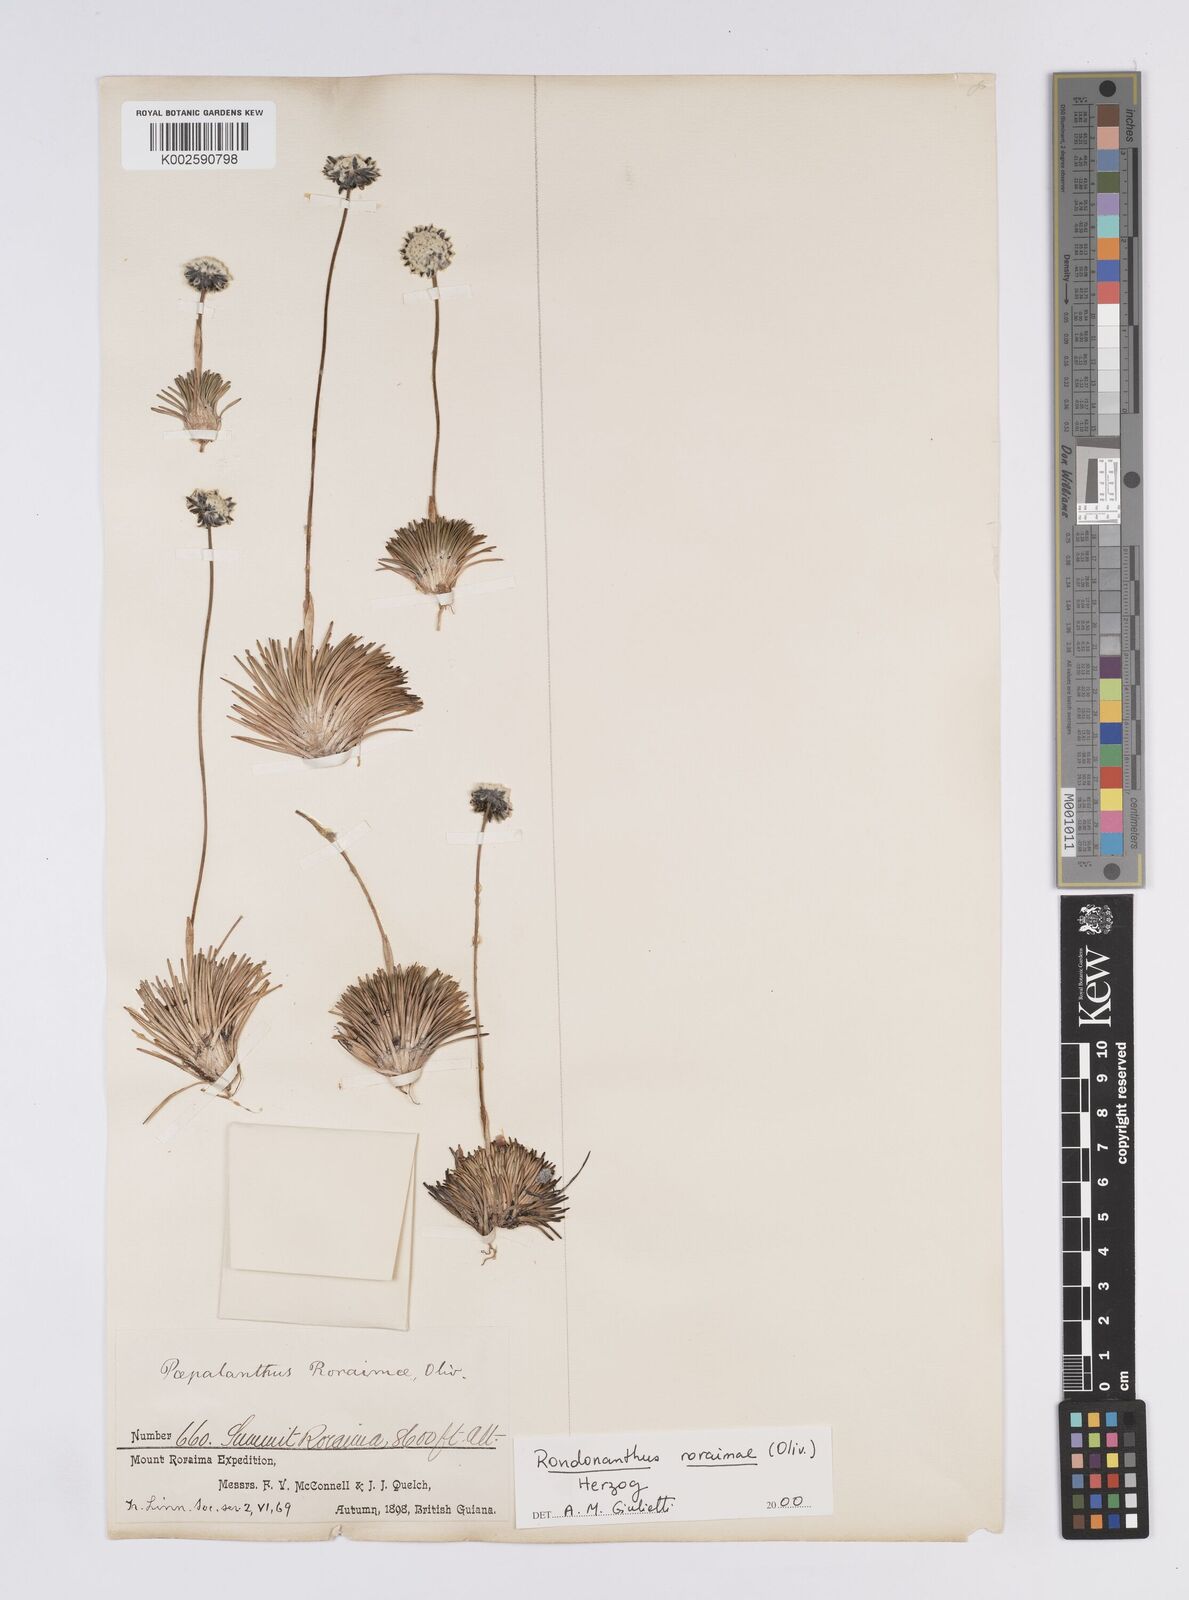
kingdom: Plantae
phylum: Tracheophyta
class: Liliopsida
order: Poales
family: Eriocaulaceae
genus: Rondonanthus
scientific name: Rondonanthus roraimae
